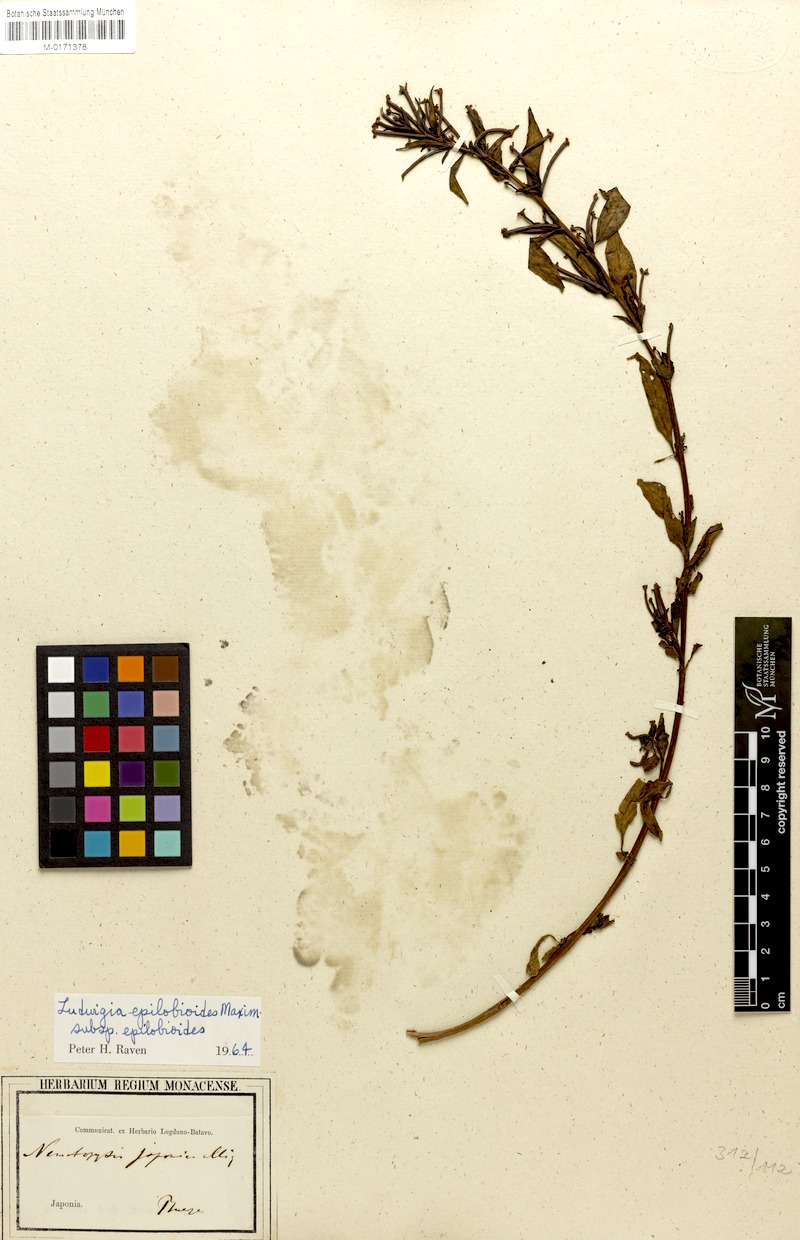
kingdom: Plantae
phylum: Tracheophyta
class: Magnoliopsida
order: Myrtales
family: Onagraceae
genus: Ludwigia
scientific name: Ludwigia epilobioides
